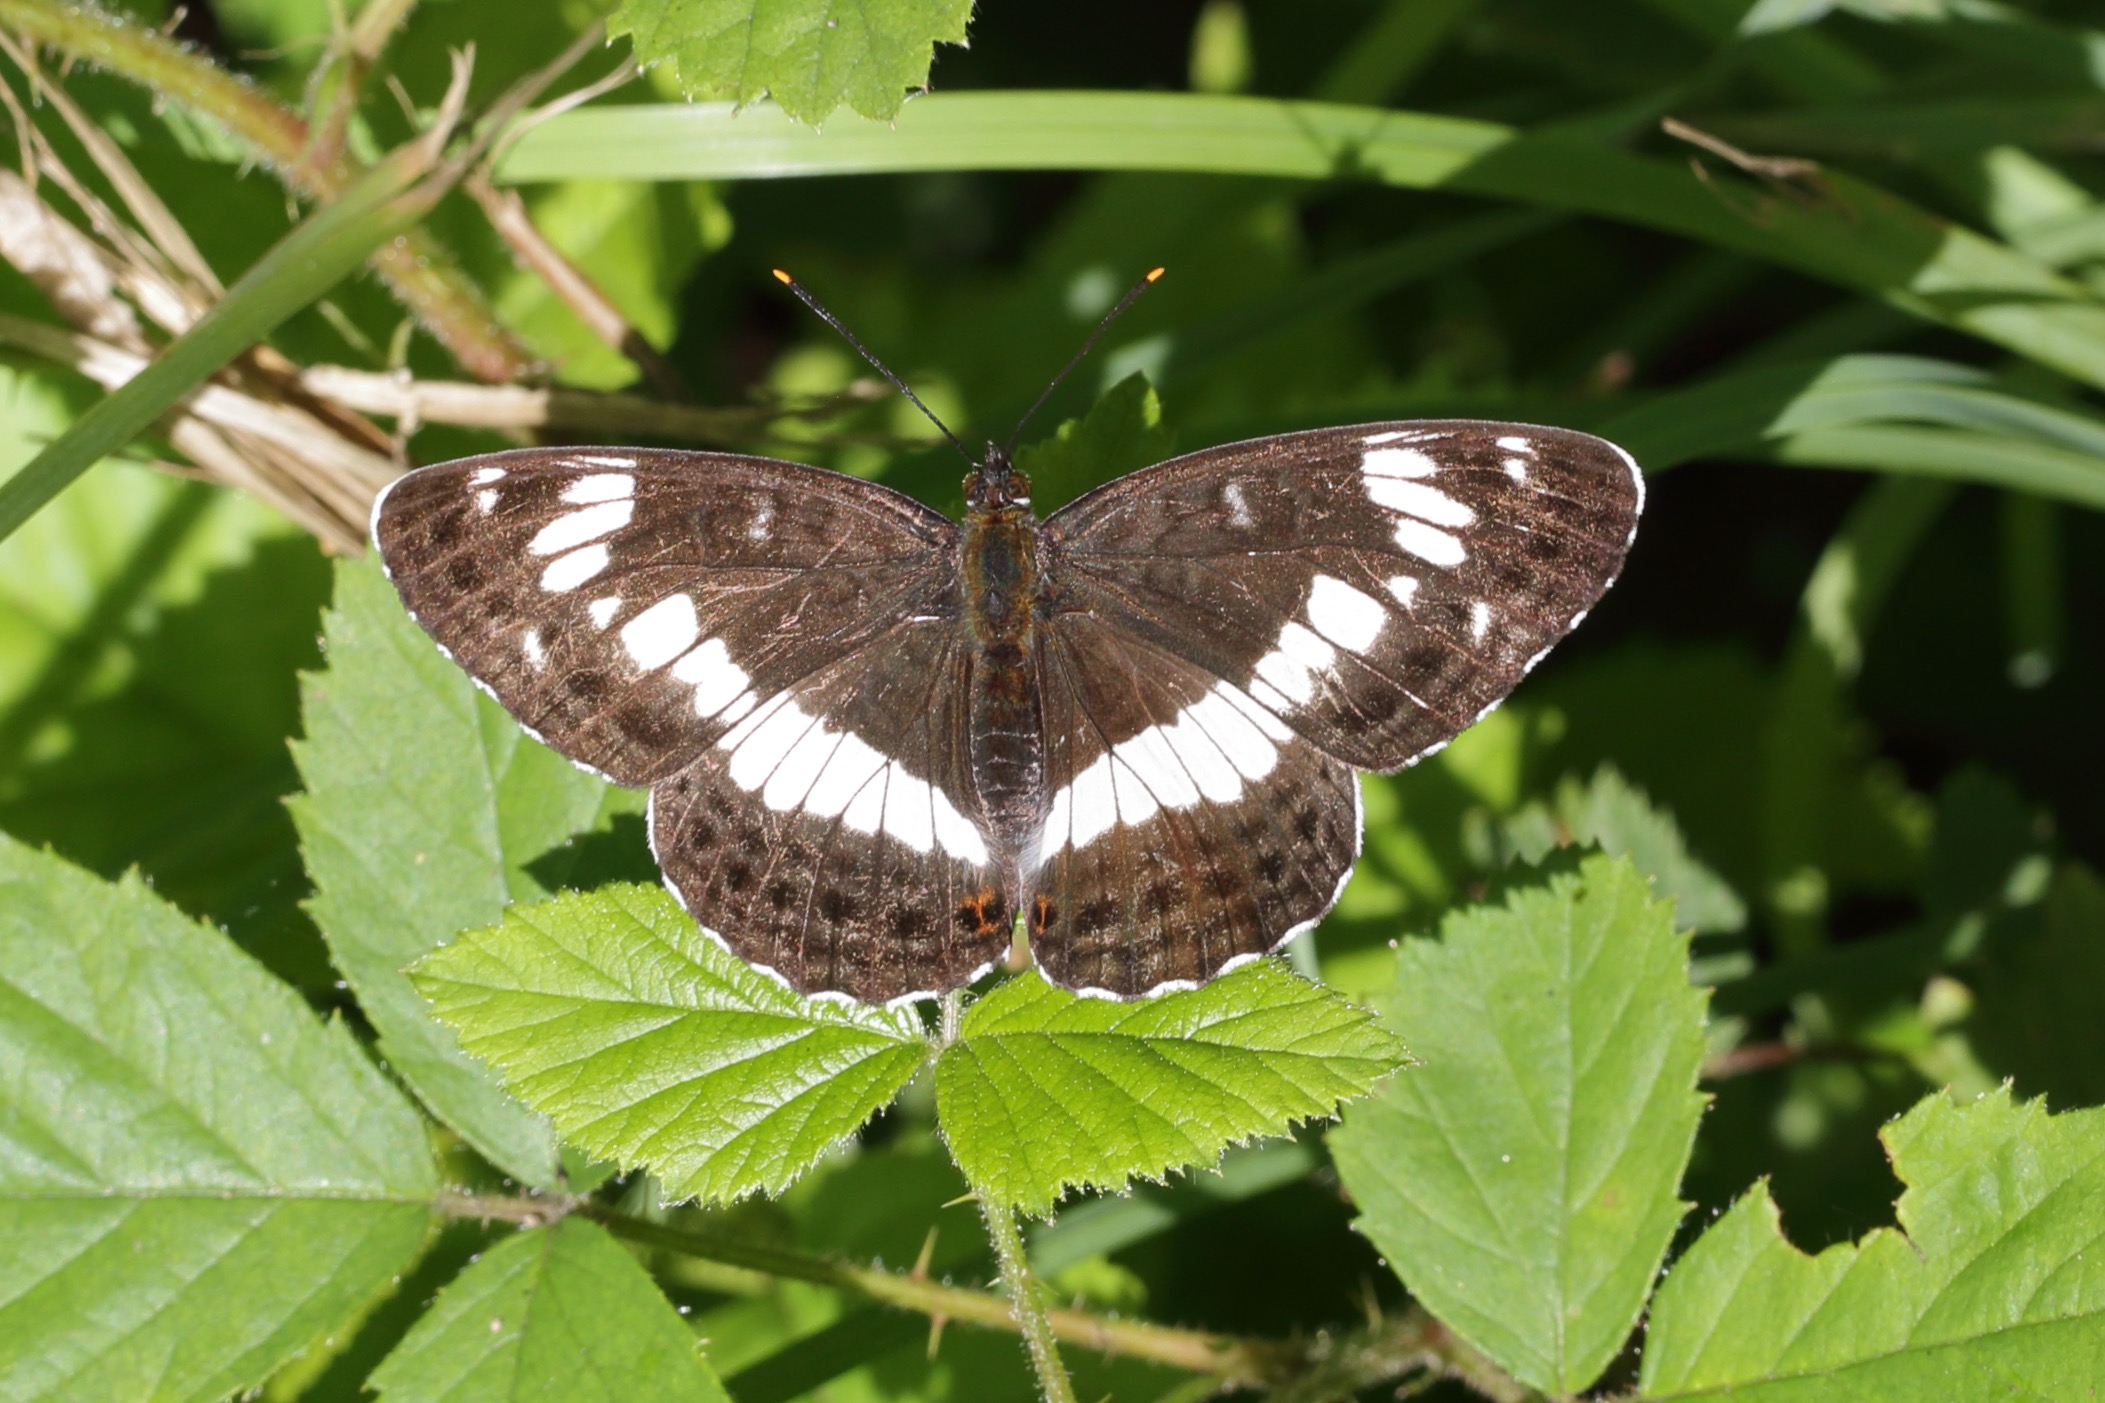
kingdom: Animalia
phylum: Arthropoda
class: Insecta
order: Lepidoptera
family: Nymphalidae
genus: Ladoga
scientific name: Ladoga camilla
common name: Hvid admiral
